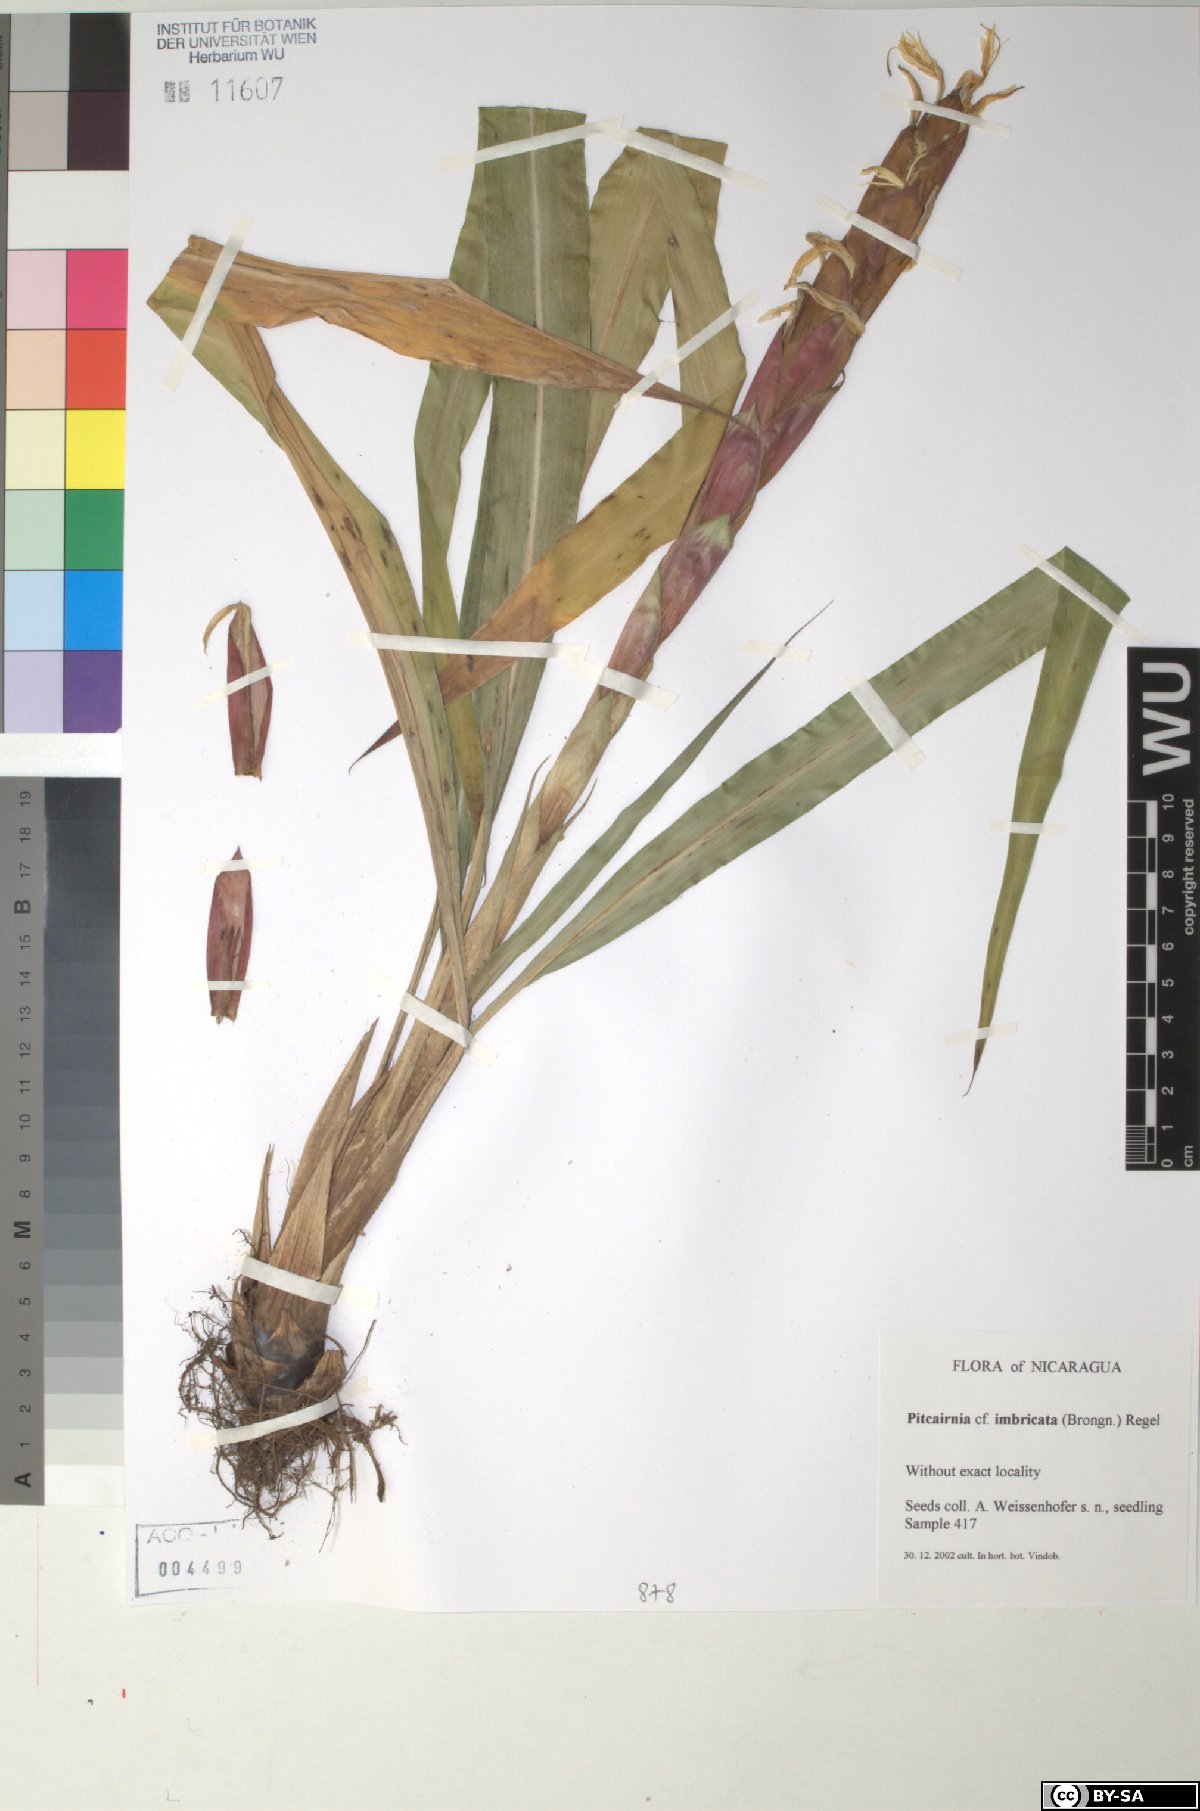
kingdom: Plantae
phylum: Tracheophyta
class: Liliopsida
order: Poales
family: Bromeliaceae
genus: Pitcairnia
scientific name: Pitcairnia imbricata
